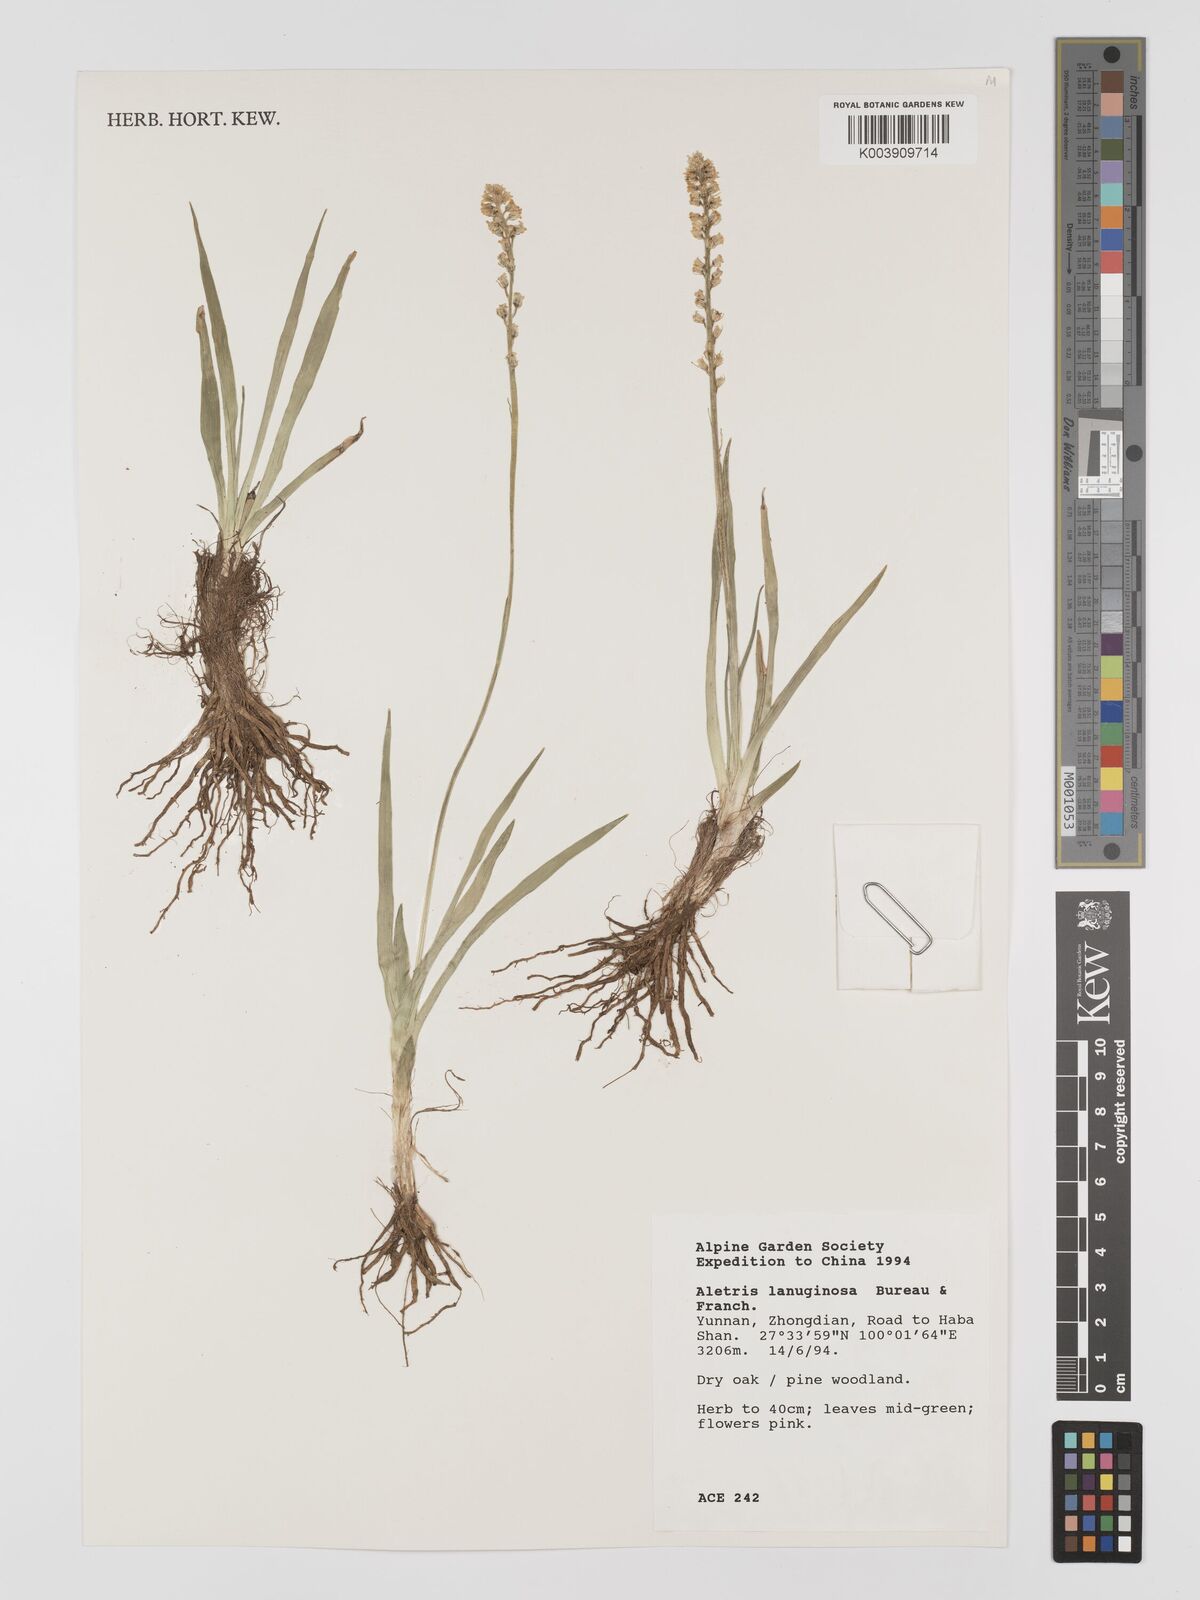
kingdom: Plantae
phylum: Tracheophyta
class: Liliopsida
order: Dioscoreales
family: Nartheciaceae
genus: Aletris
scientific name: Aletris laxiflora
